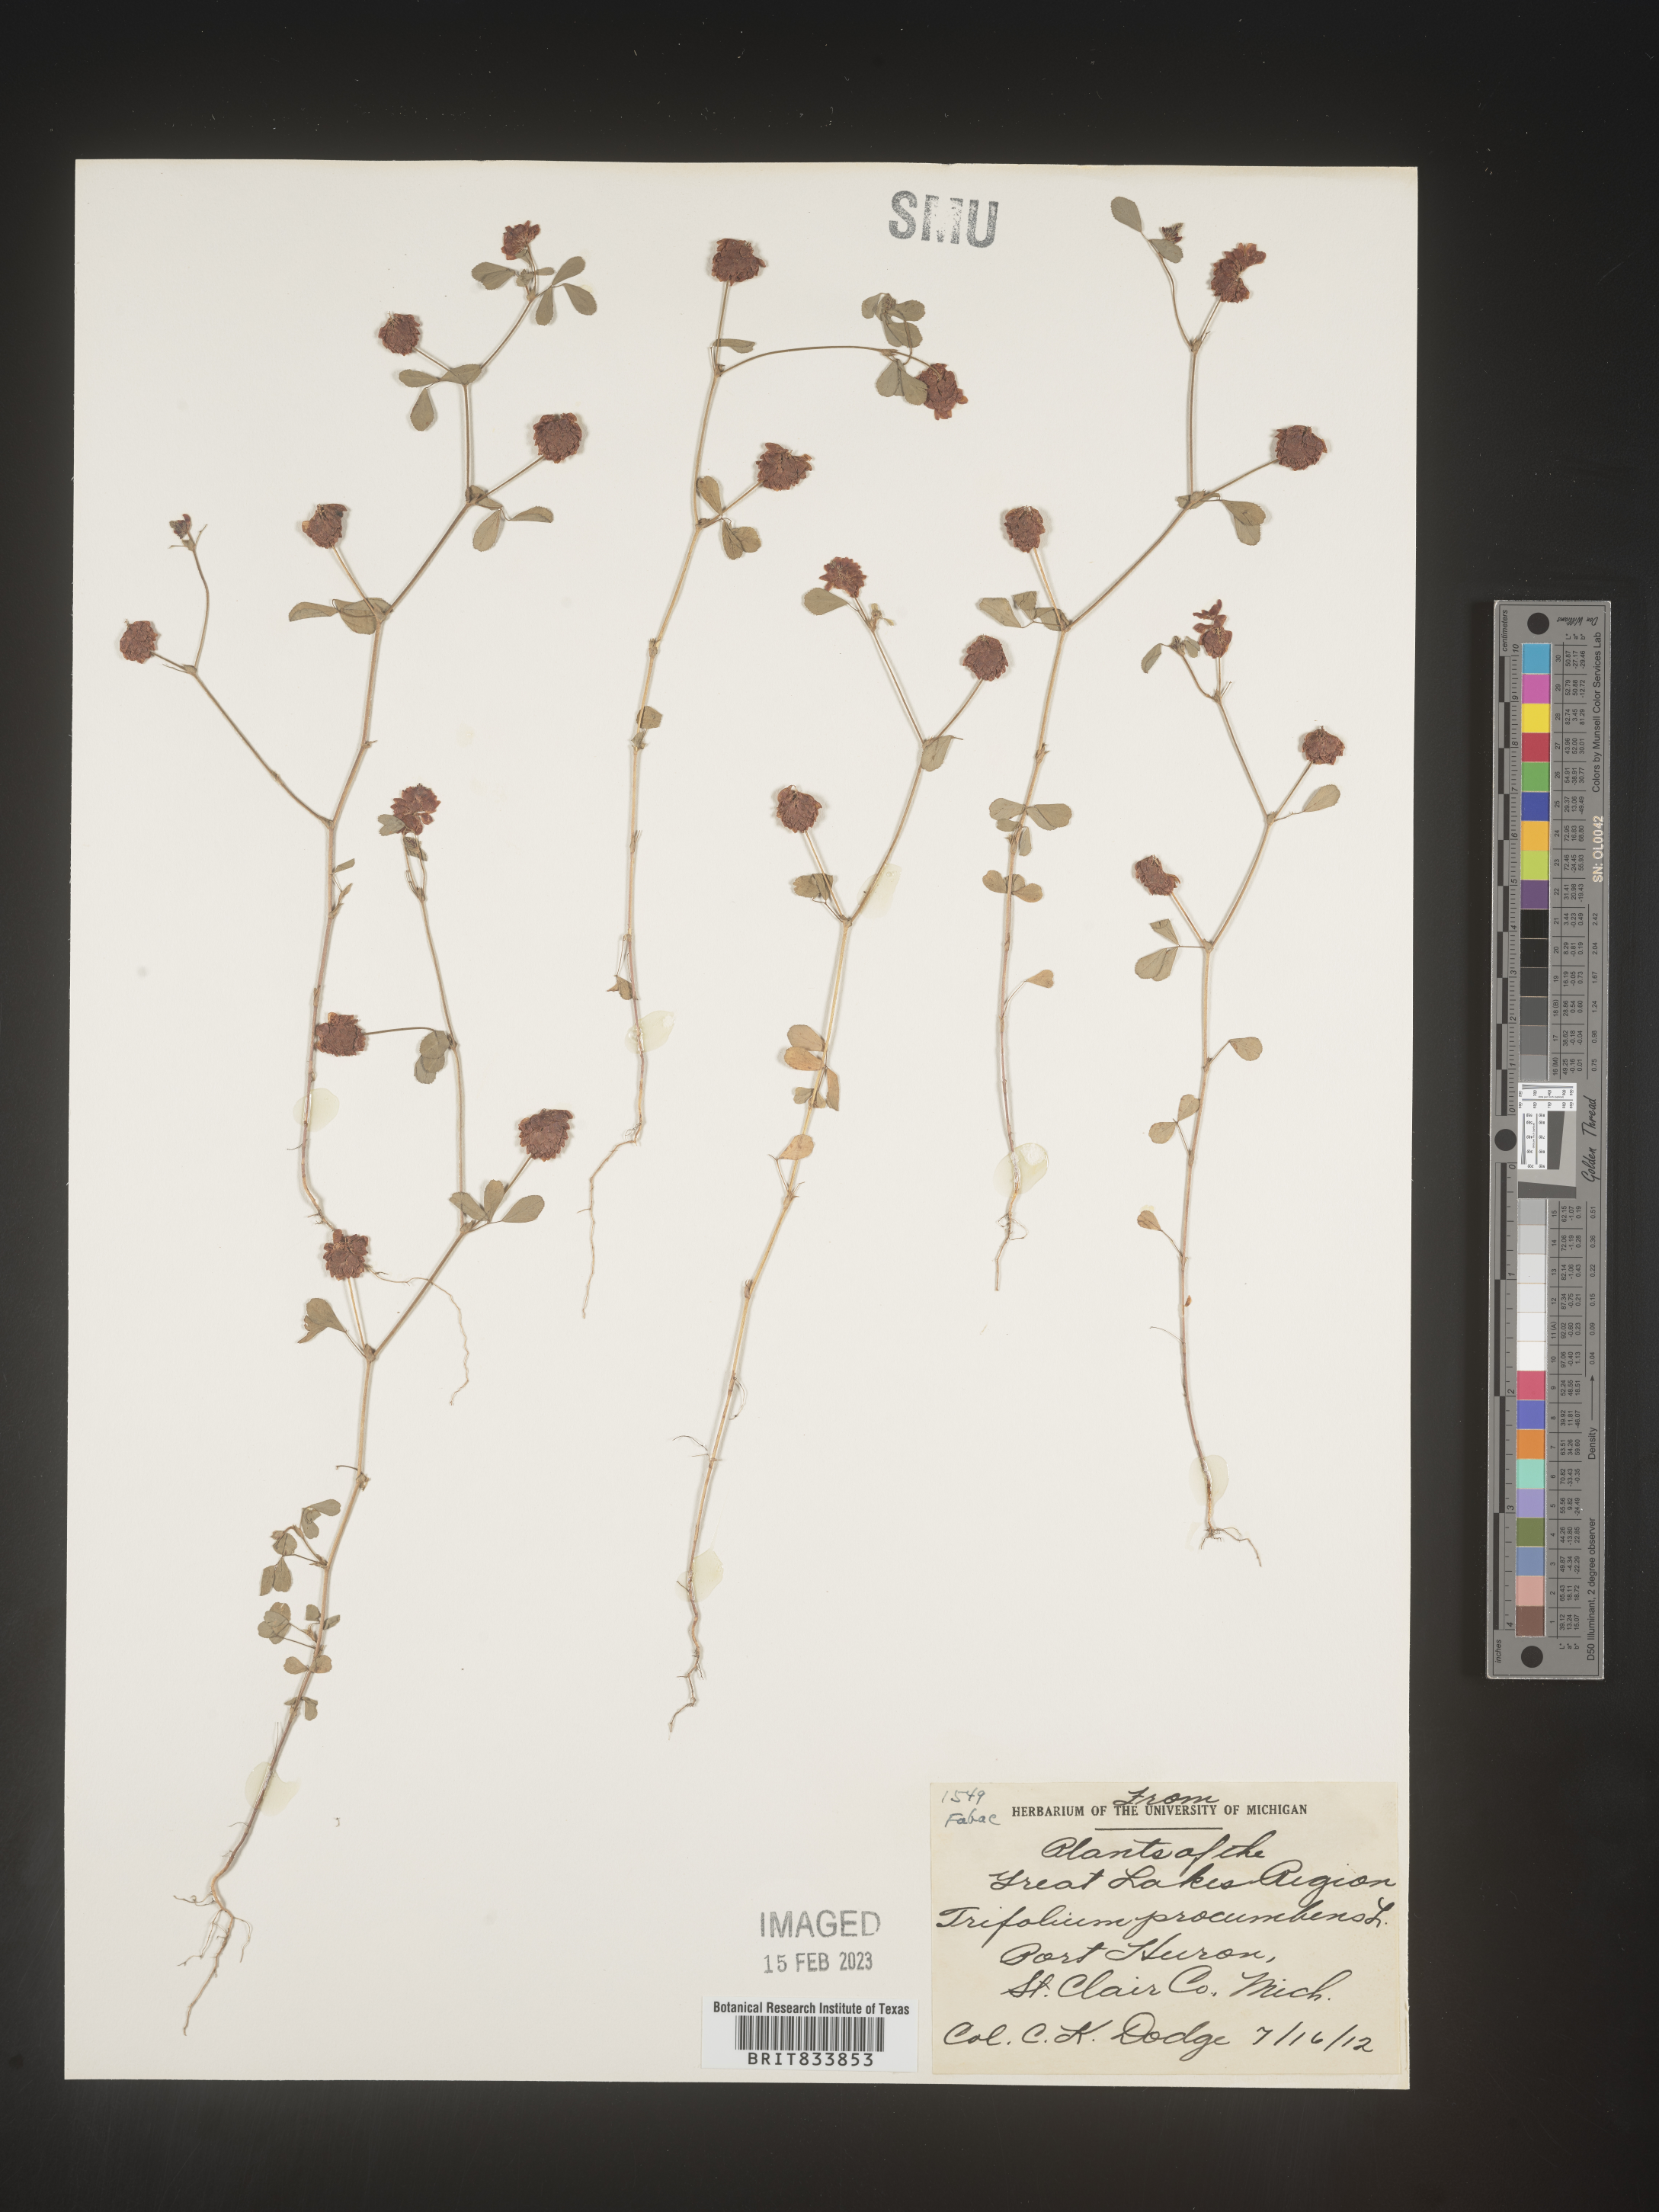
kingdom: Plantae
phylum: Tracheophyta
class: Magnoliopsida
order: Fabales
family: Fabaceae
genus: Trifolium
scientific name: Trifolium campestre
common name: Field clover
